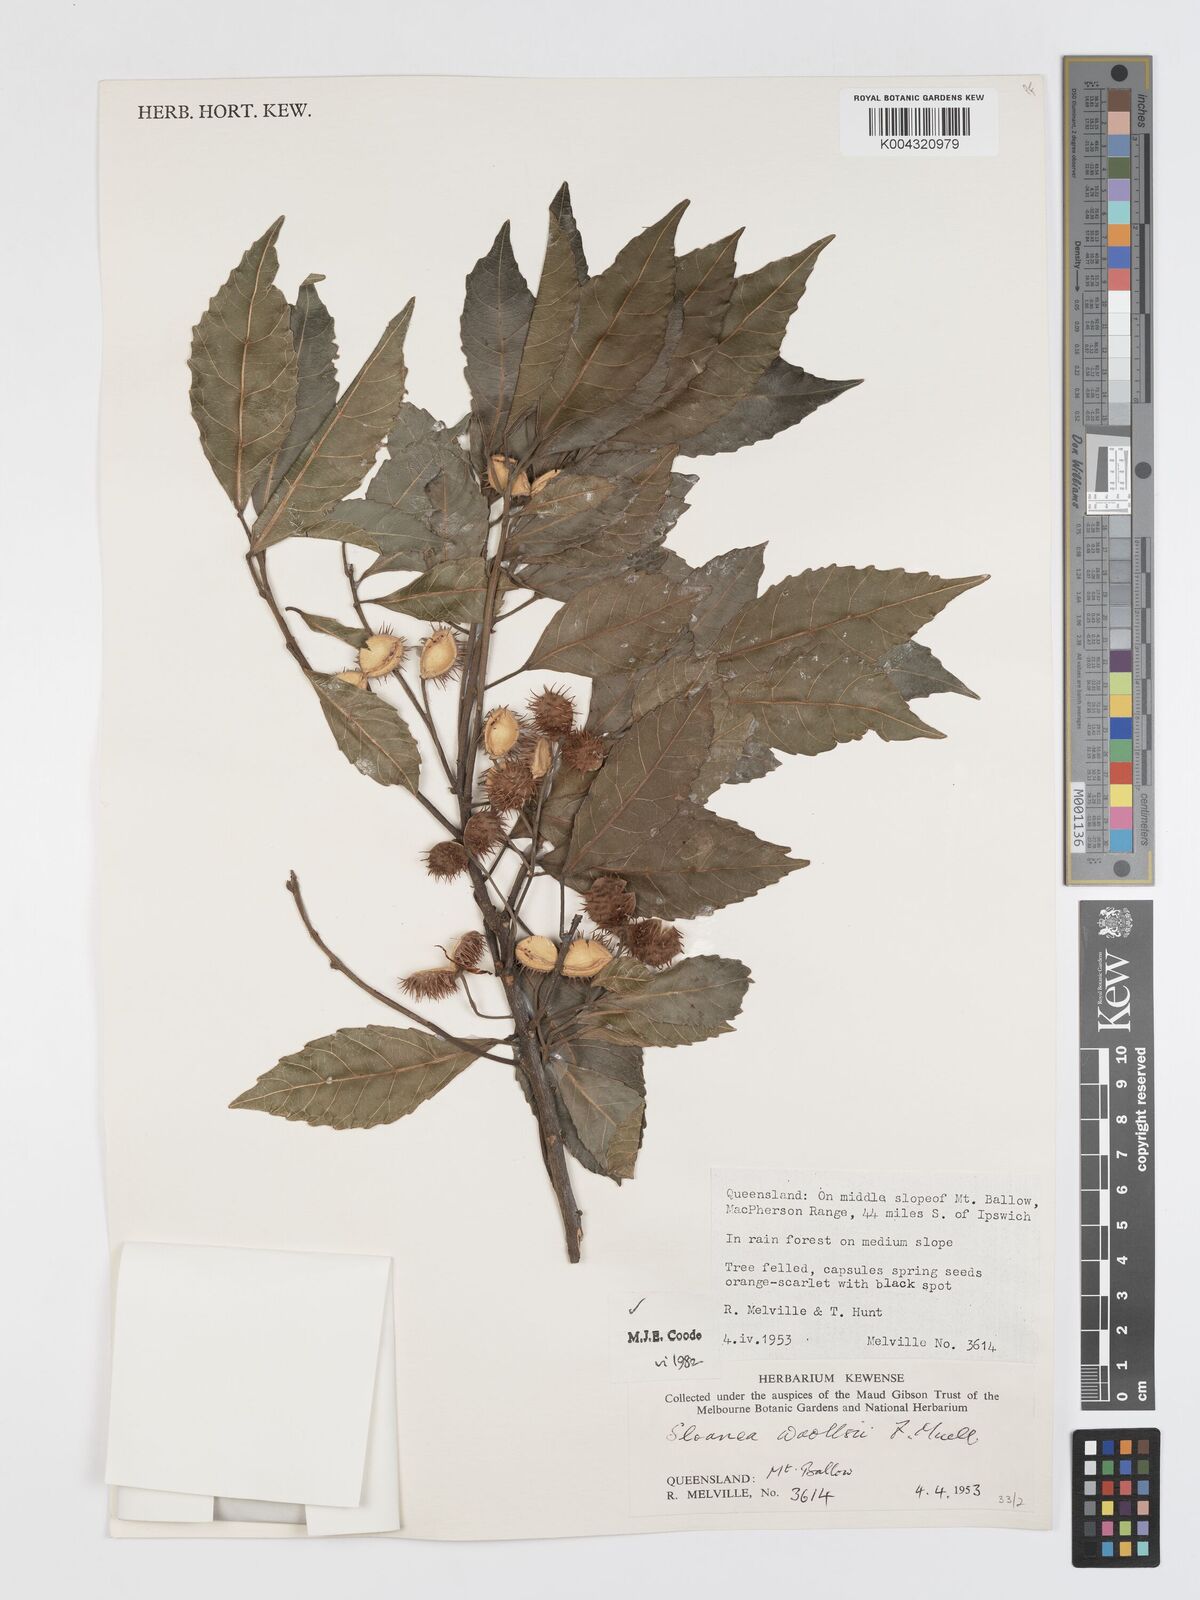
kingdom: Plantae
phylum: Tracheophyta
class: Magnoliopsida
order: Oxalidales
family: Elaeocarpaceae
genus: Sloanea
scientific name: Sloanea woollsii
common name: Yellow carabeen
